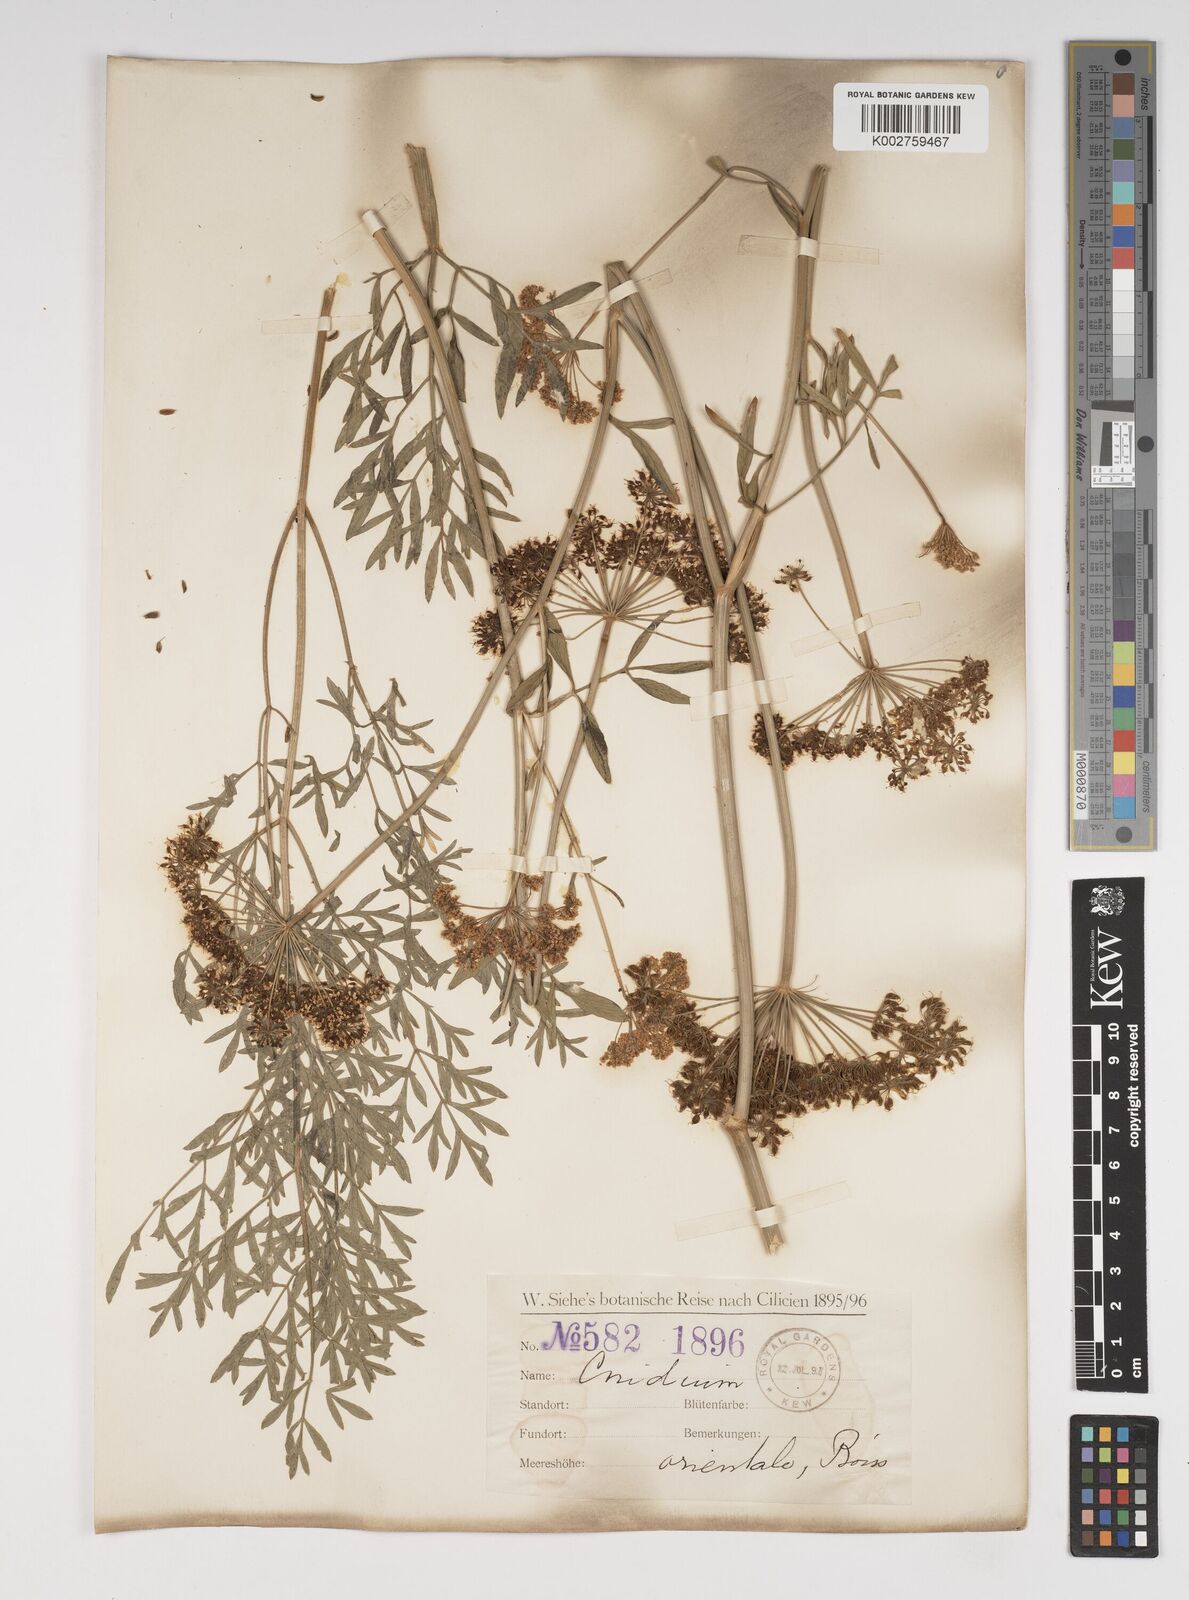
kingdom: Plantae
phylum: Tracheophyta
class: Magnoliopsida
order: Apiales
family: Apiaceae
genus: Katapsuxis
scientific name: Katapsuxis silaifolia
